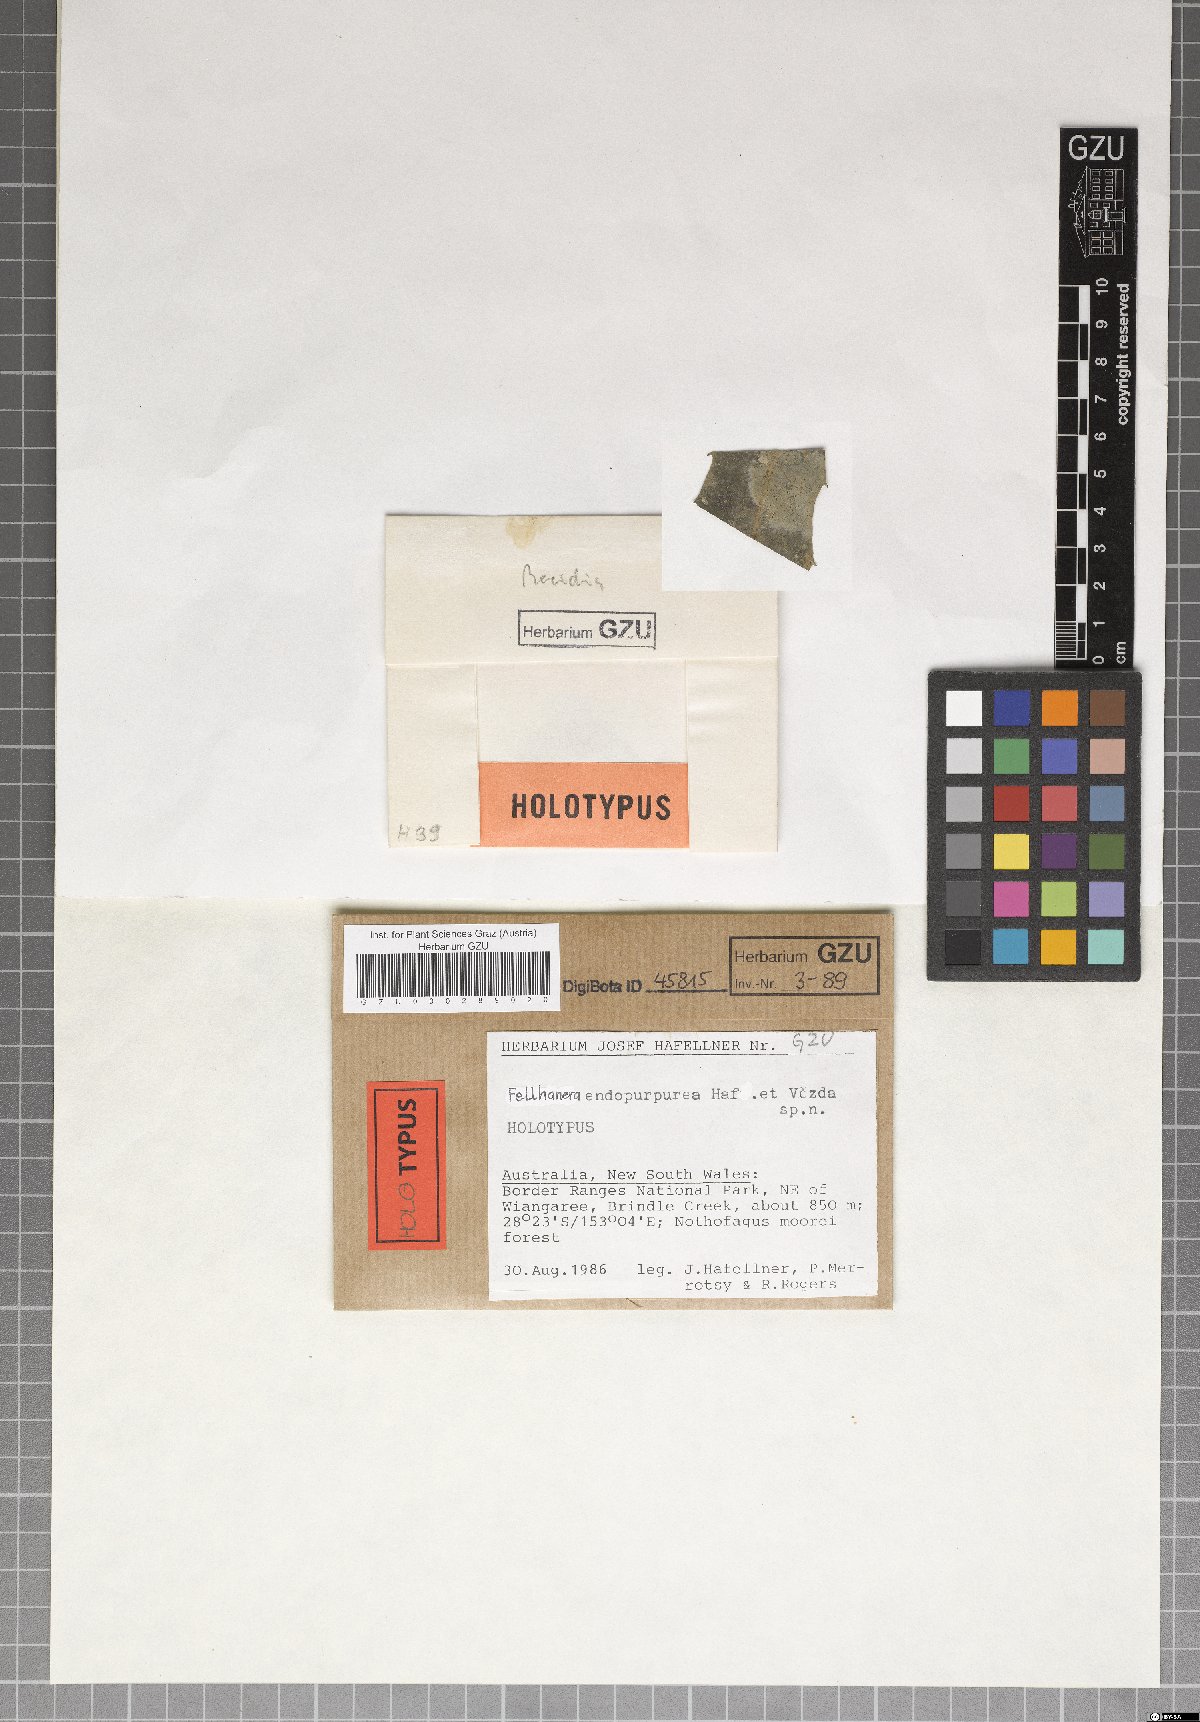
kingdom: Fungi
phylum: Ascomycota
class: Lecanoromycetes
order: Lecanorales
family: Byssolomataceae
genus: Fellhanera
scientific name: Fellhanera endopurpurea
